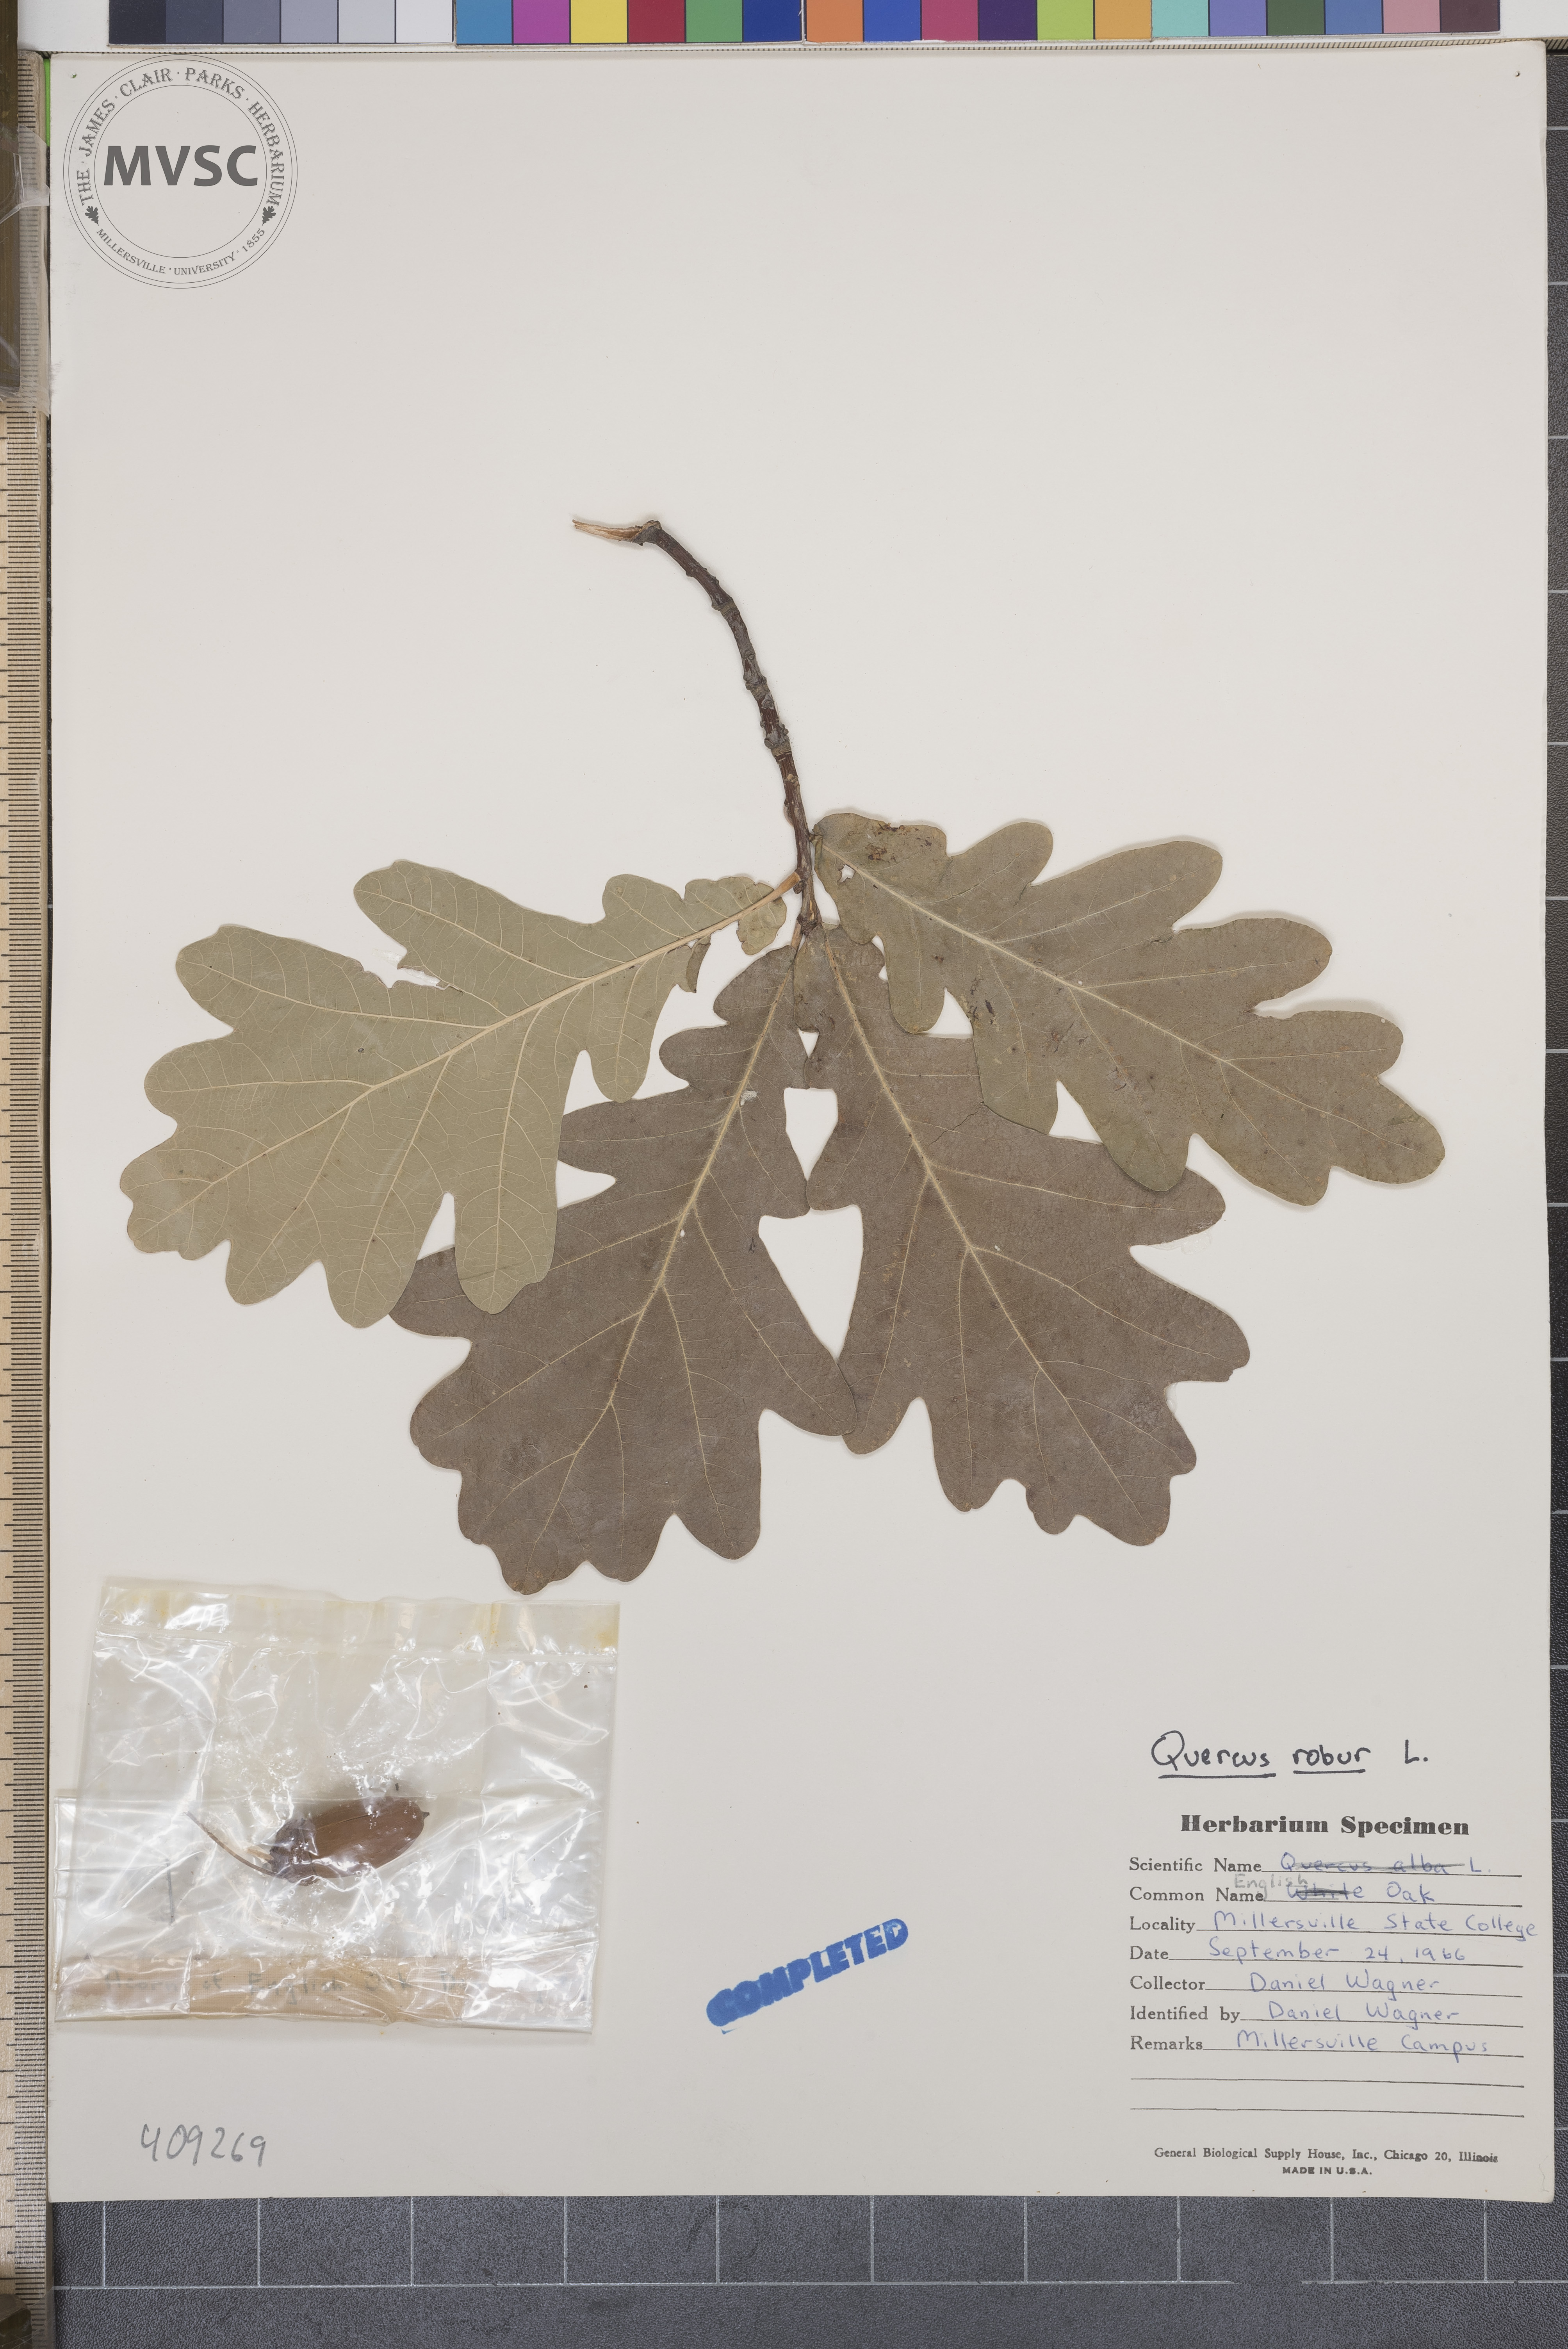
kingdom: Plantae
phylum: Tracheophyta
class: Magnoliopsida
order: Fagales
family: Fagaceae
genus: Quercus
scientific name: Quercus robur
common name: English Oak
